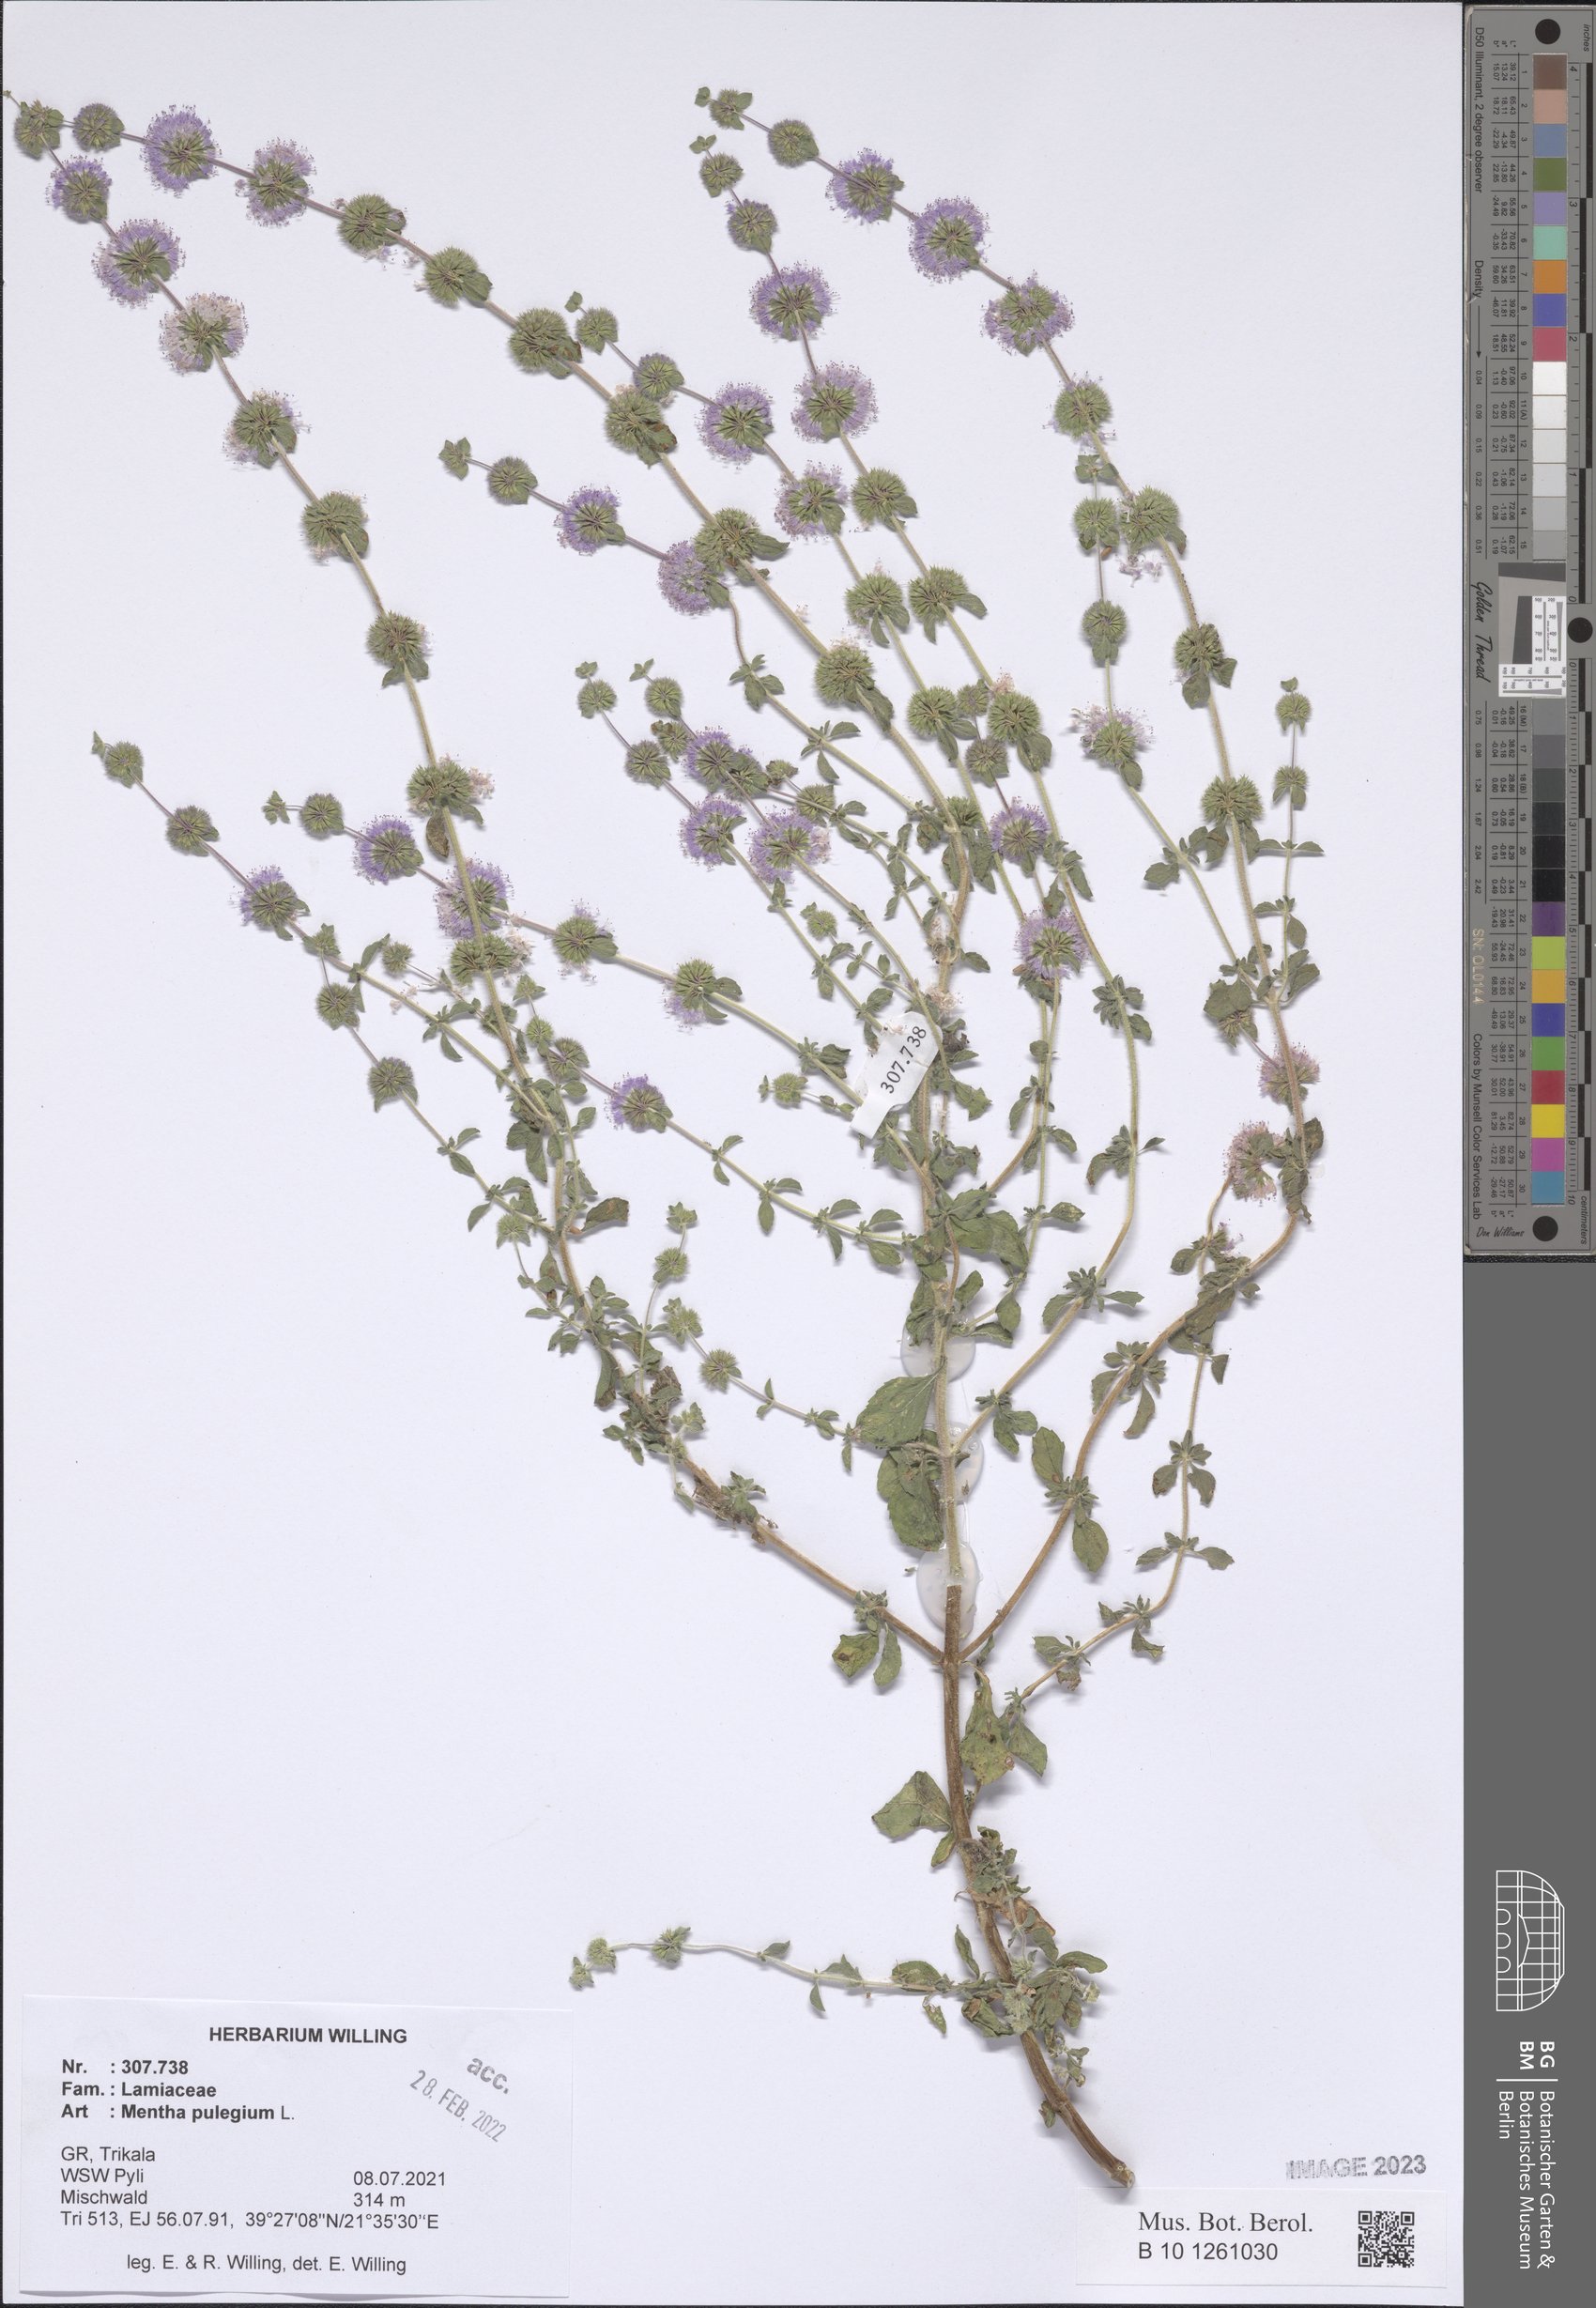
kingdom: Plantae
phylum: Tracheophyta
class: Magnoliopsida
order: Lamiales
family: Lamiaceae
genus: Mentha
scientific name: Mentha pulegium
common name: Pennyroyal
